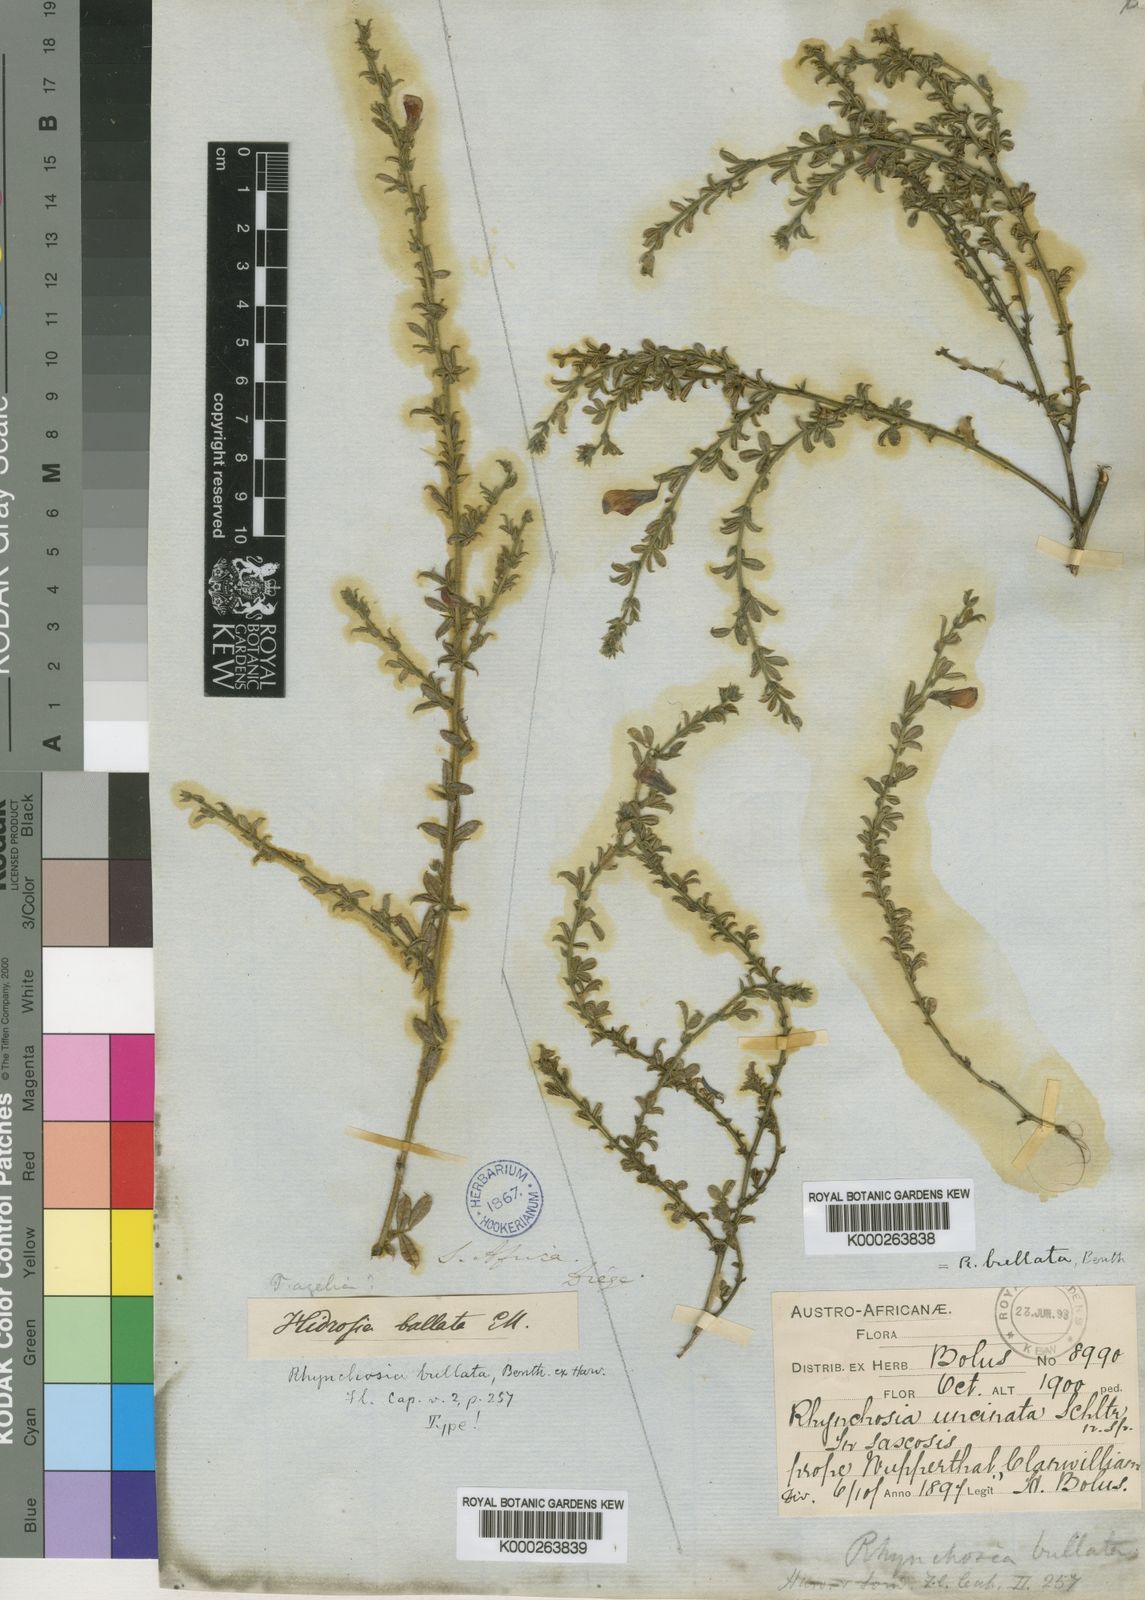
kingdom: Plantae
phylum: Tracheophyta
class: Magnoliopsida
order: Fabales
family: Fabaceae
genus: Rhynchosia
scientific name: Rhynchosia bullata
